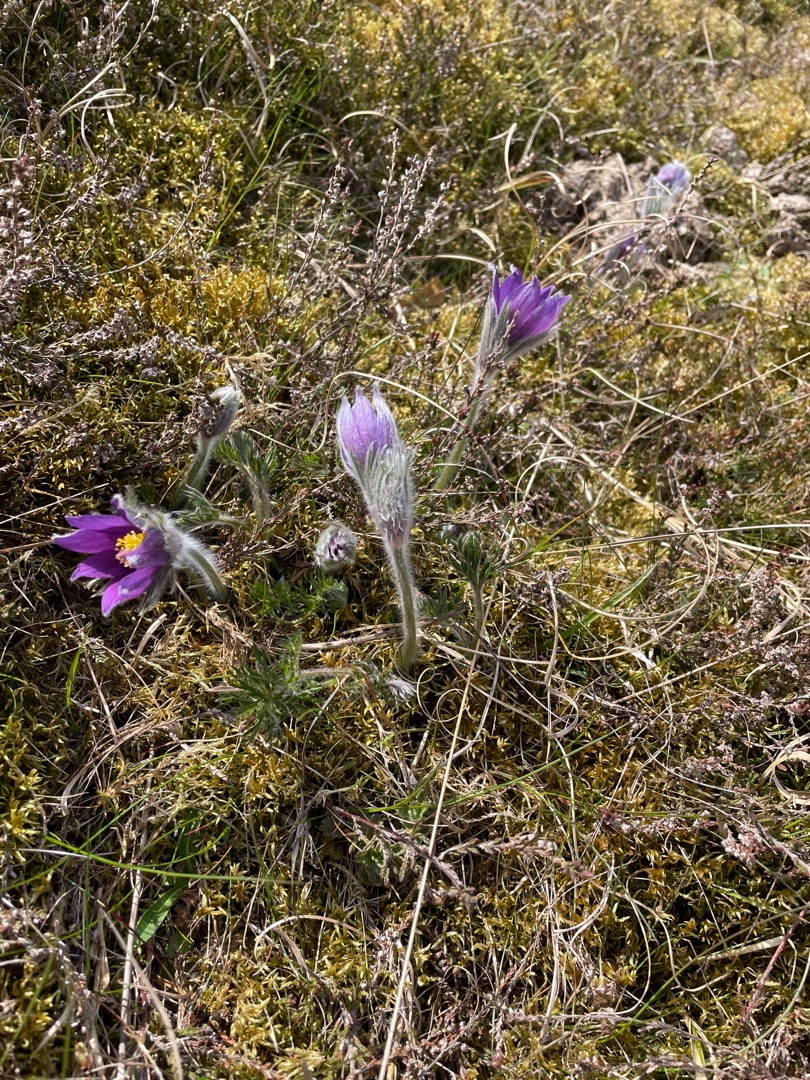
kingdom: Plantae
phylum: Tracheophyta
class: Magnoliopsida
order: Ranunculales
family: Ranunculaceae
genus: Pulsatilla
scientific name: Pulsatilla vulgaris
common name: Opret kobjælde
